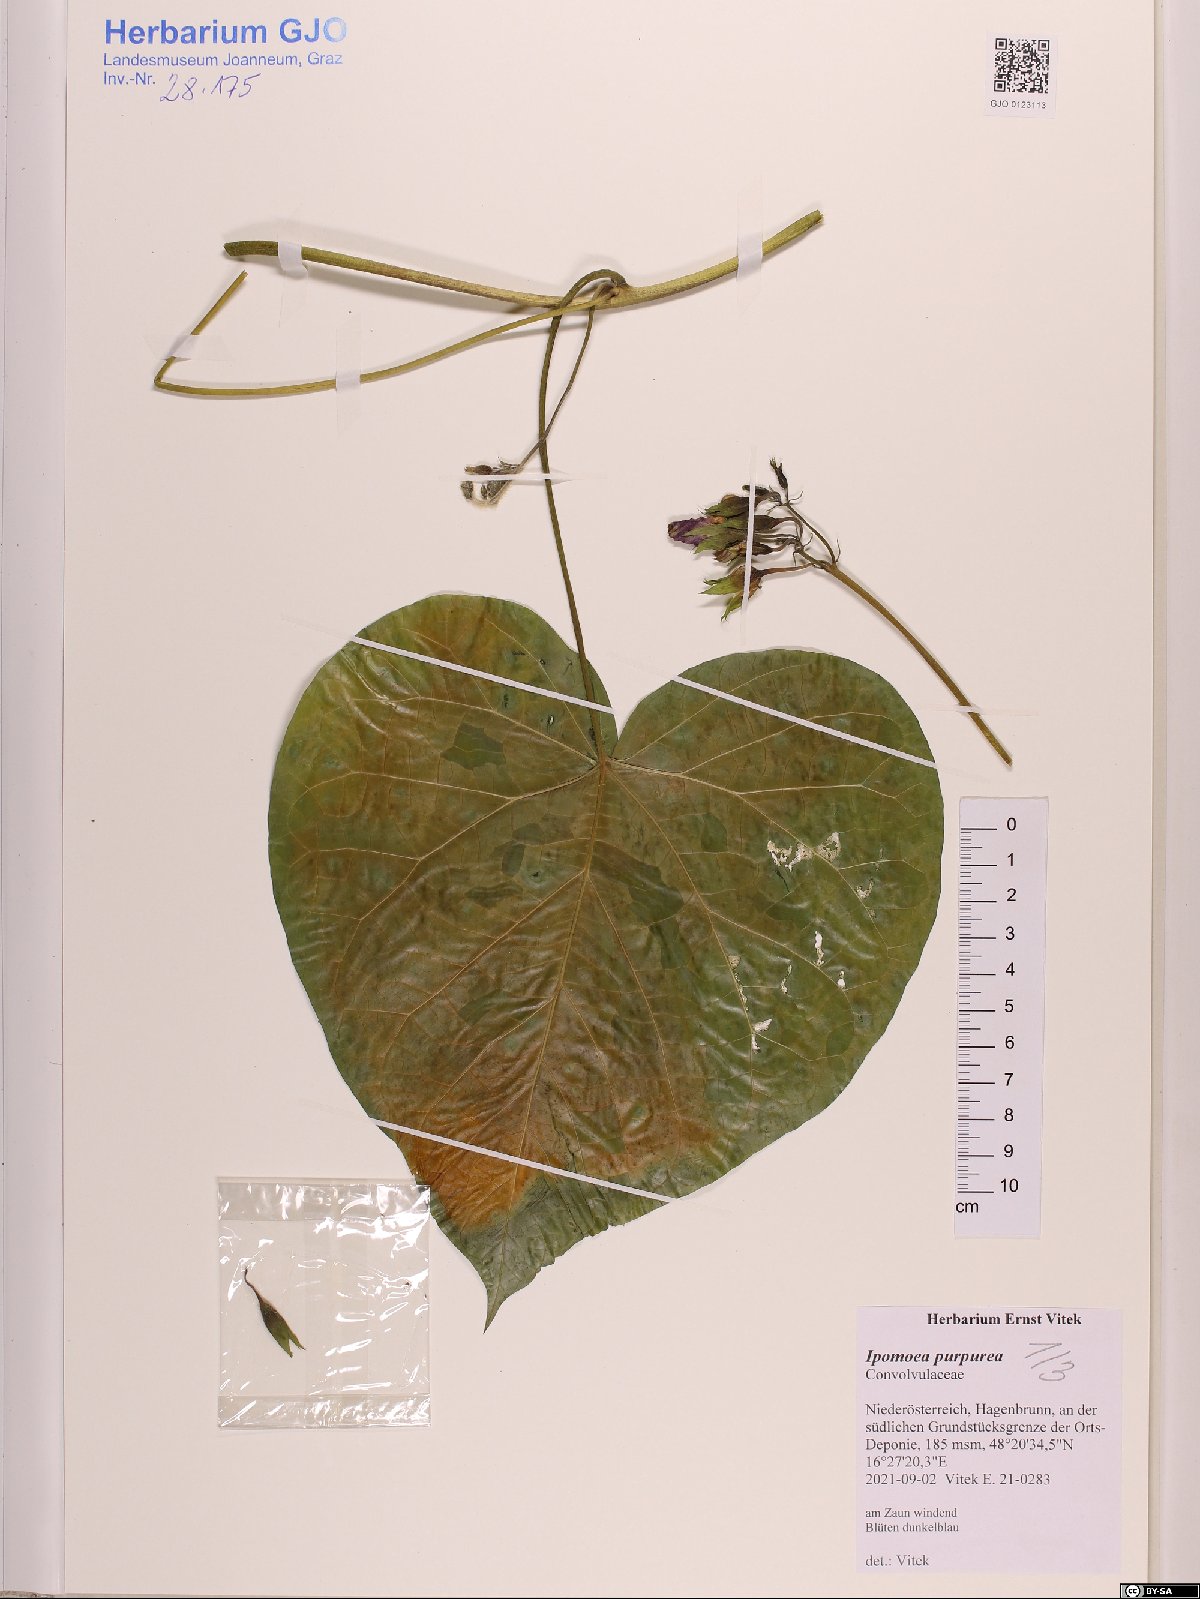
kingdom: Plantae
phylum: Tracheophyta
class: Magnoliopsida
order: Solanales
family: Convolvulaceae
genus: Ipomoea
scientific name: Ipomoea purpurea
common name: Common morning-glory
